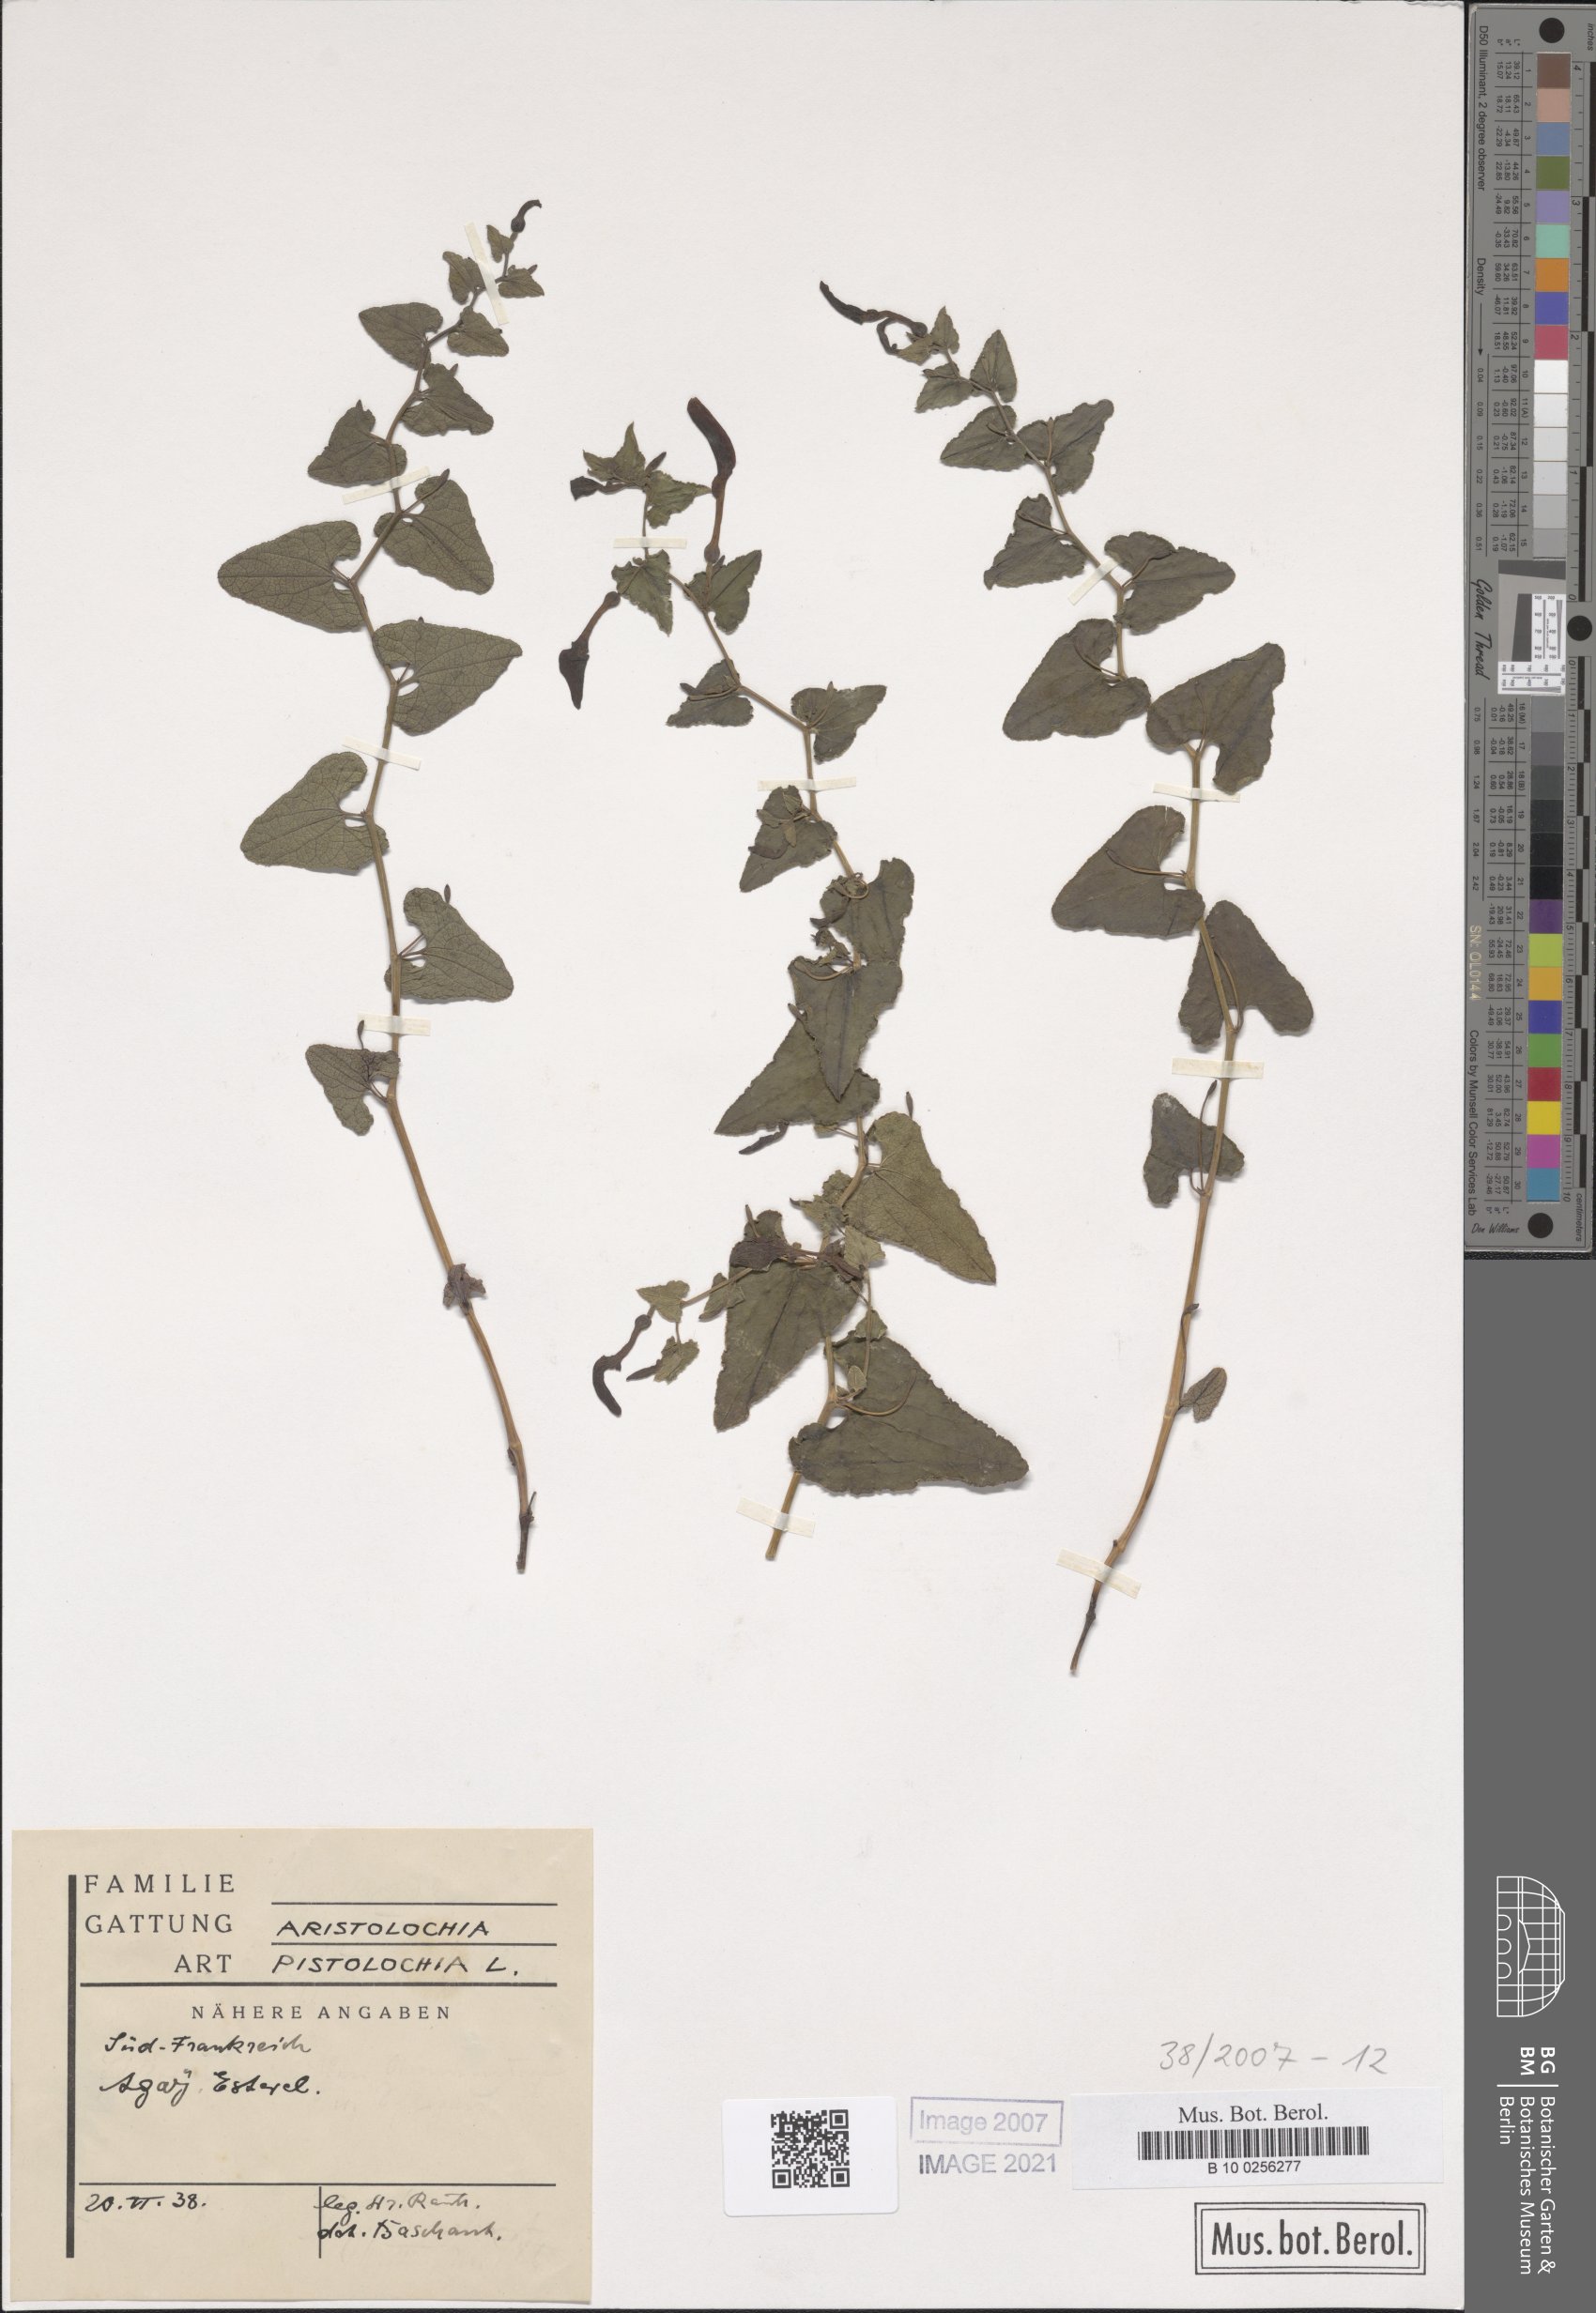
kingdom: Plantae
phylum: Tracheophyta
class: Magnoliopsida
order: Piperales
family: Aristolochiaceae
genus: Aristolochia
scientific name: Aristolochia pistolochia
